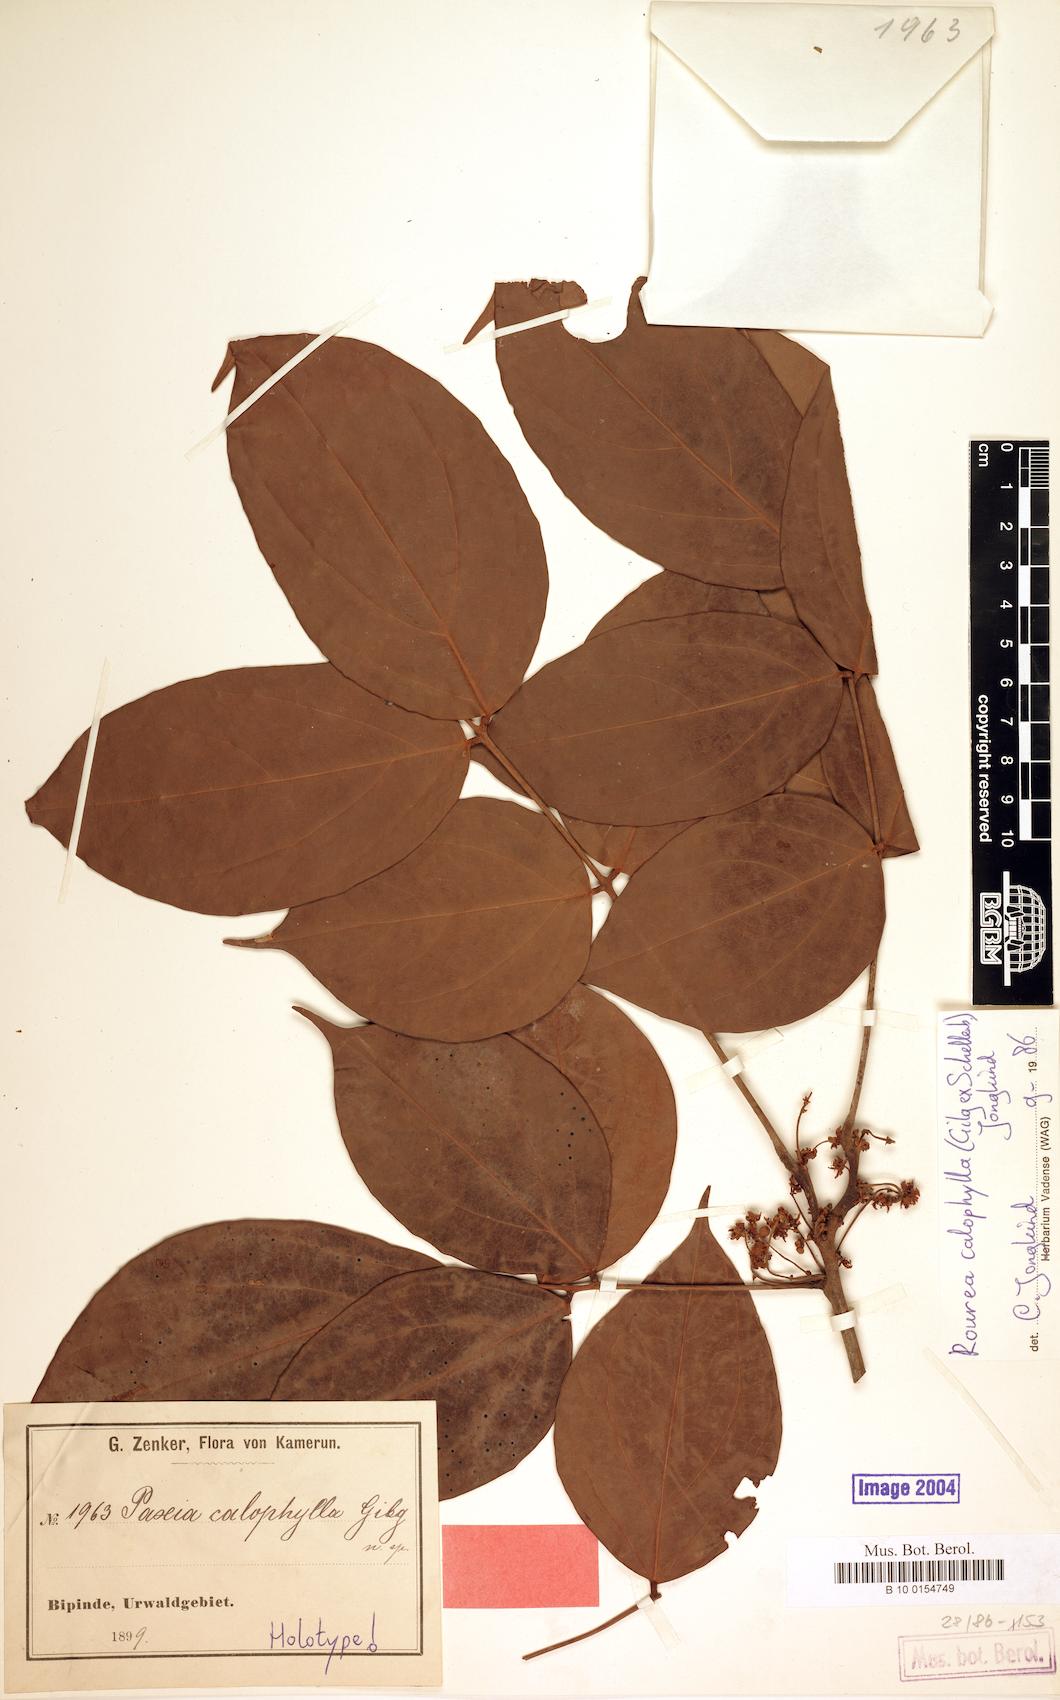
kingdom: Plantae
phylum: Tracheophyta
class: Magnoliopsida
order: Oxalidales
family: Connaraceae
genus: Rourea
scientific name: Rourea calophylla
